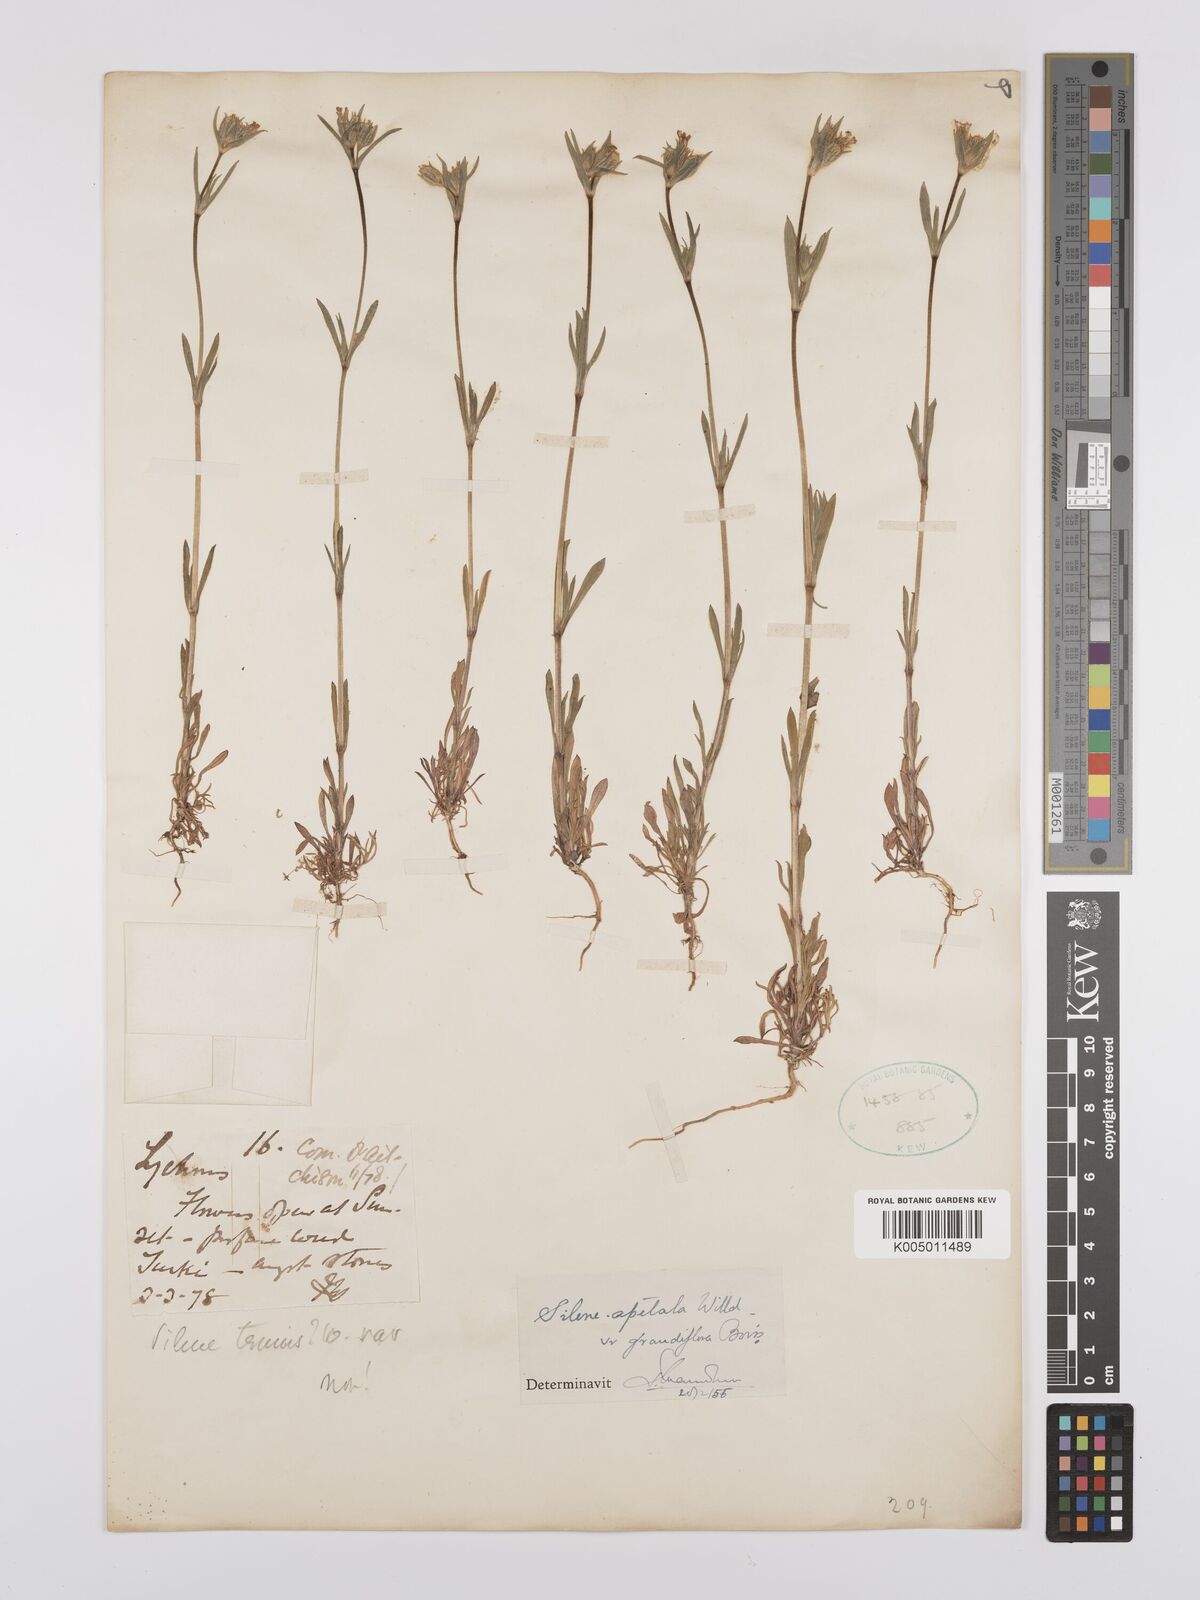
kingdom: Plantae
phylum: Tracheophyta
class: Magnoliopsida
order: Caryophyllales
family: Caryophyllaceae
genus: Silene
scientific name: Silene apetala
